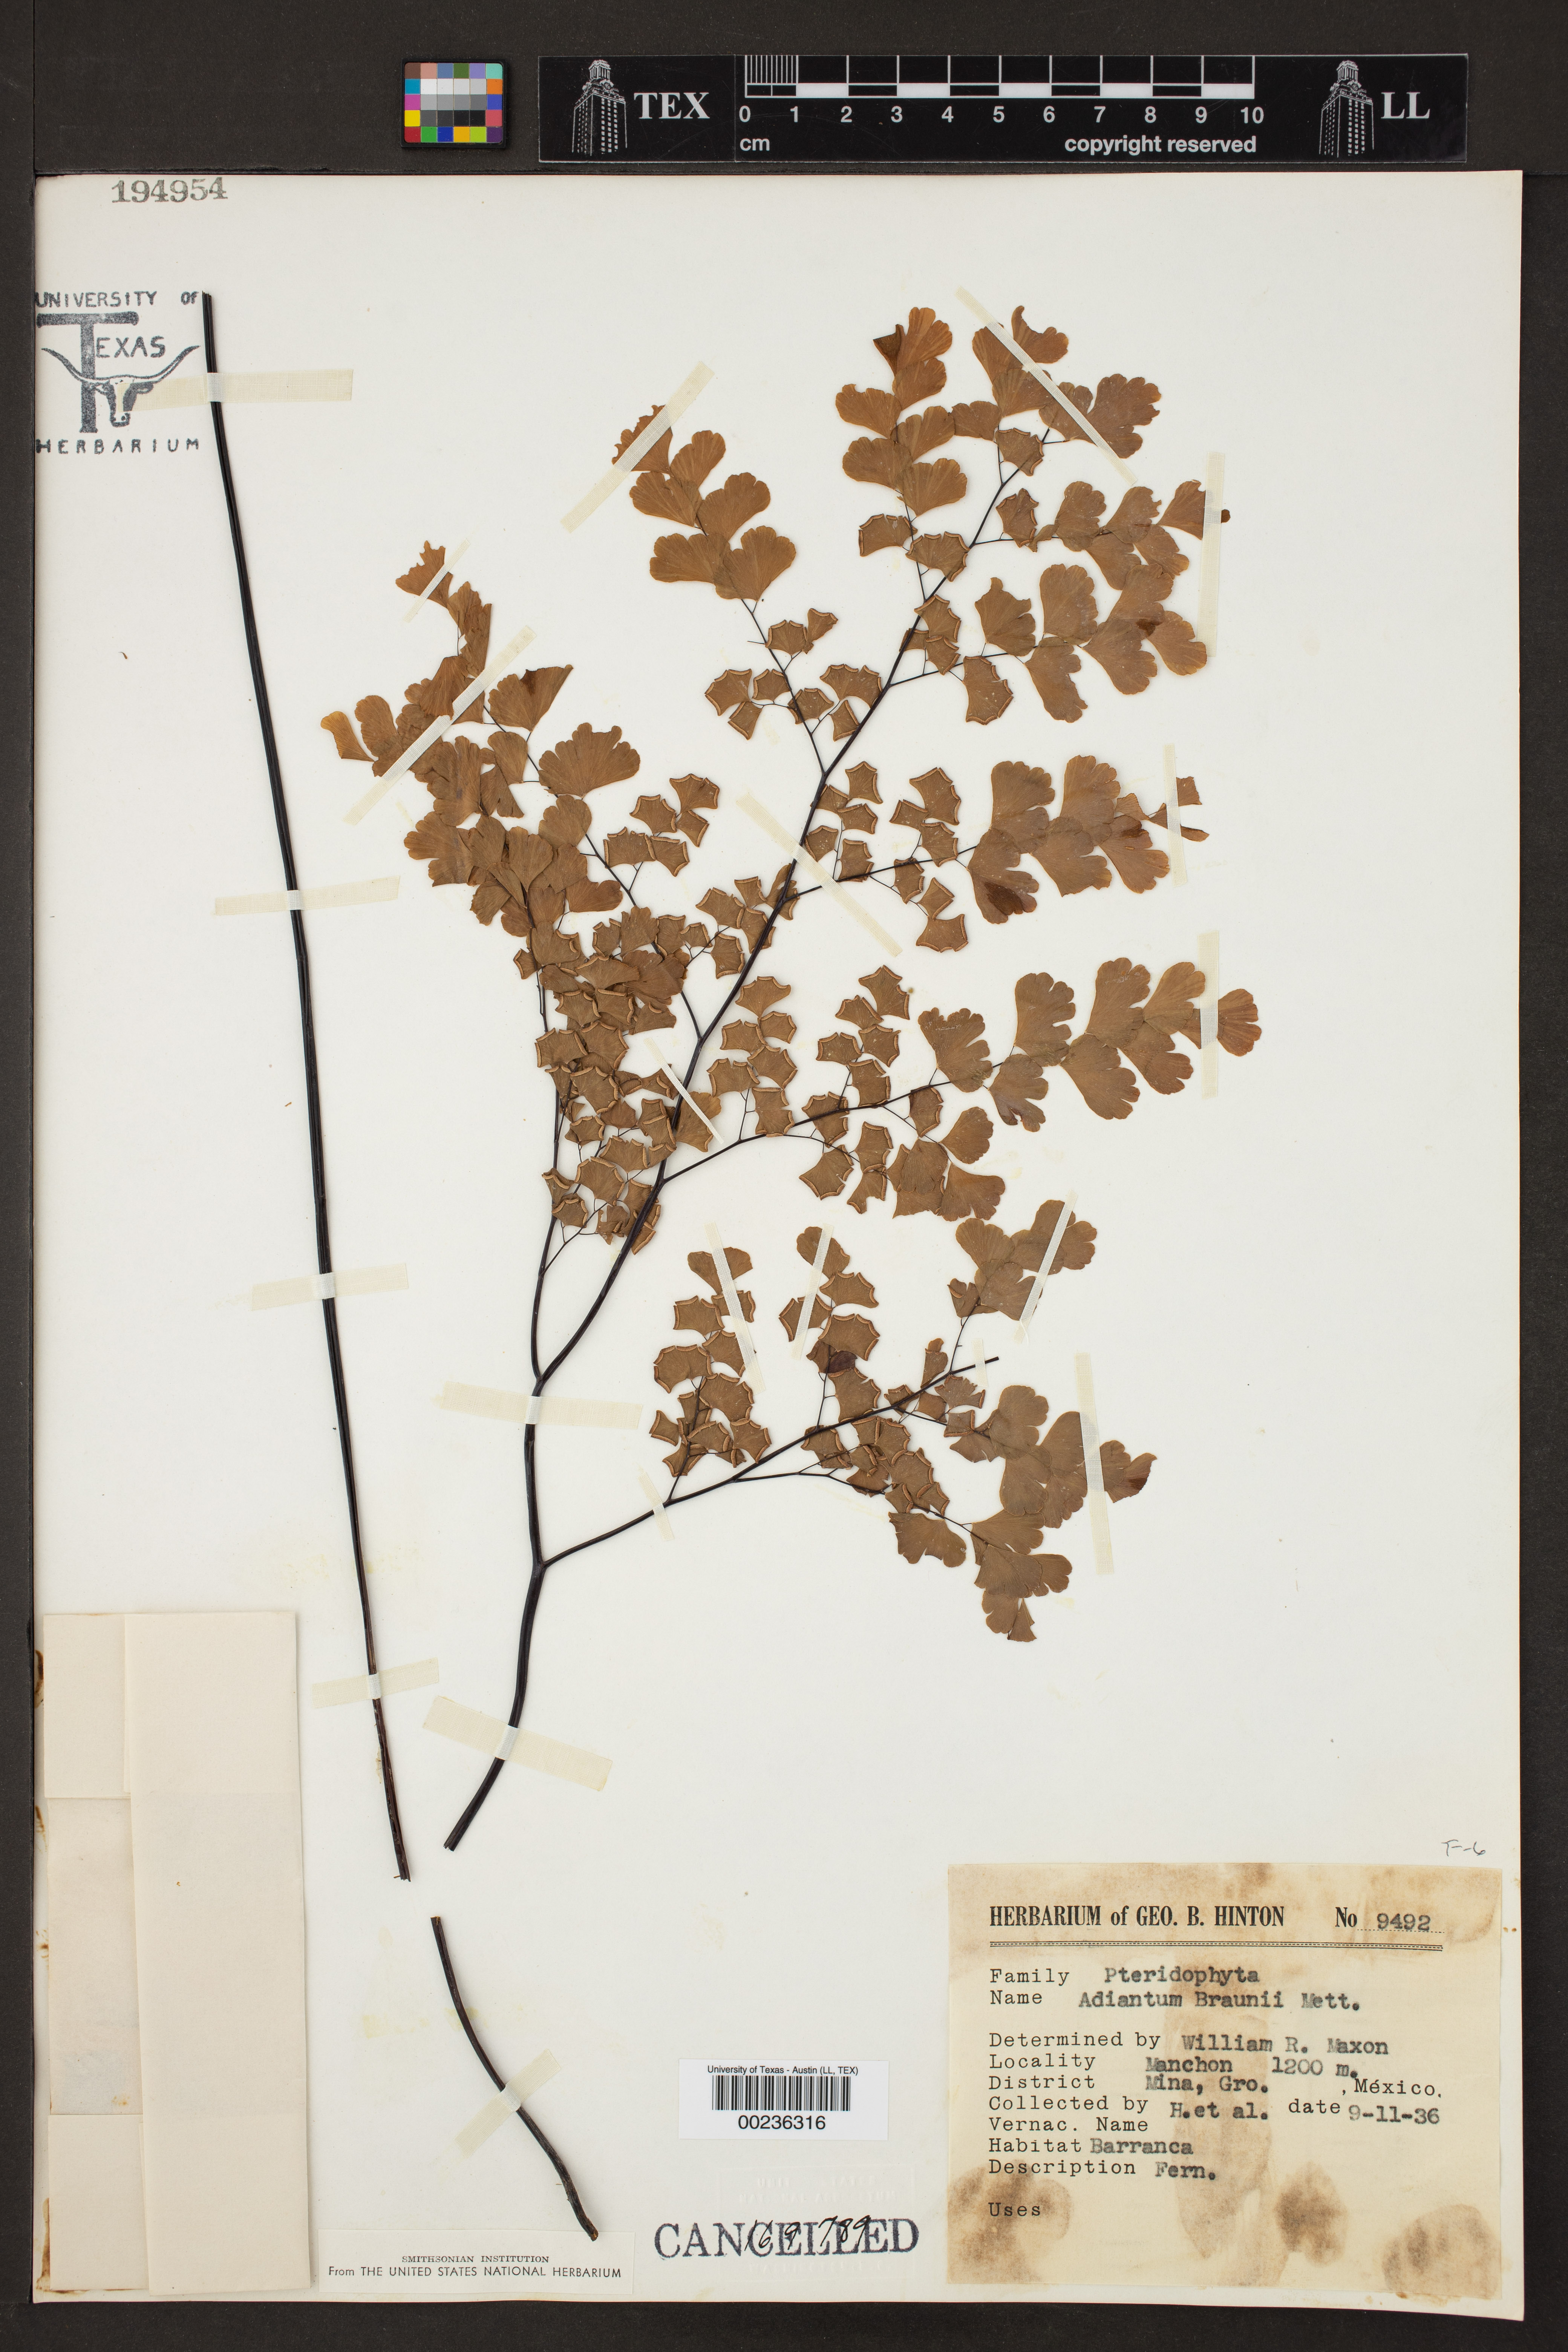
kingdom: Plantae
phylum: Tracheophyta
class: Polypodiopsida
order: Polypodiales
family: Pteridaceae
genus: Adiantum
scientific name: Adiantum braunii
